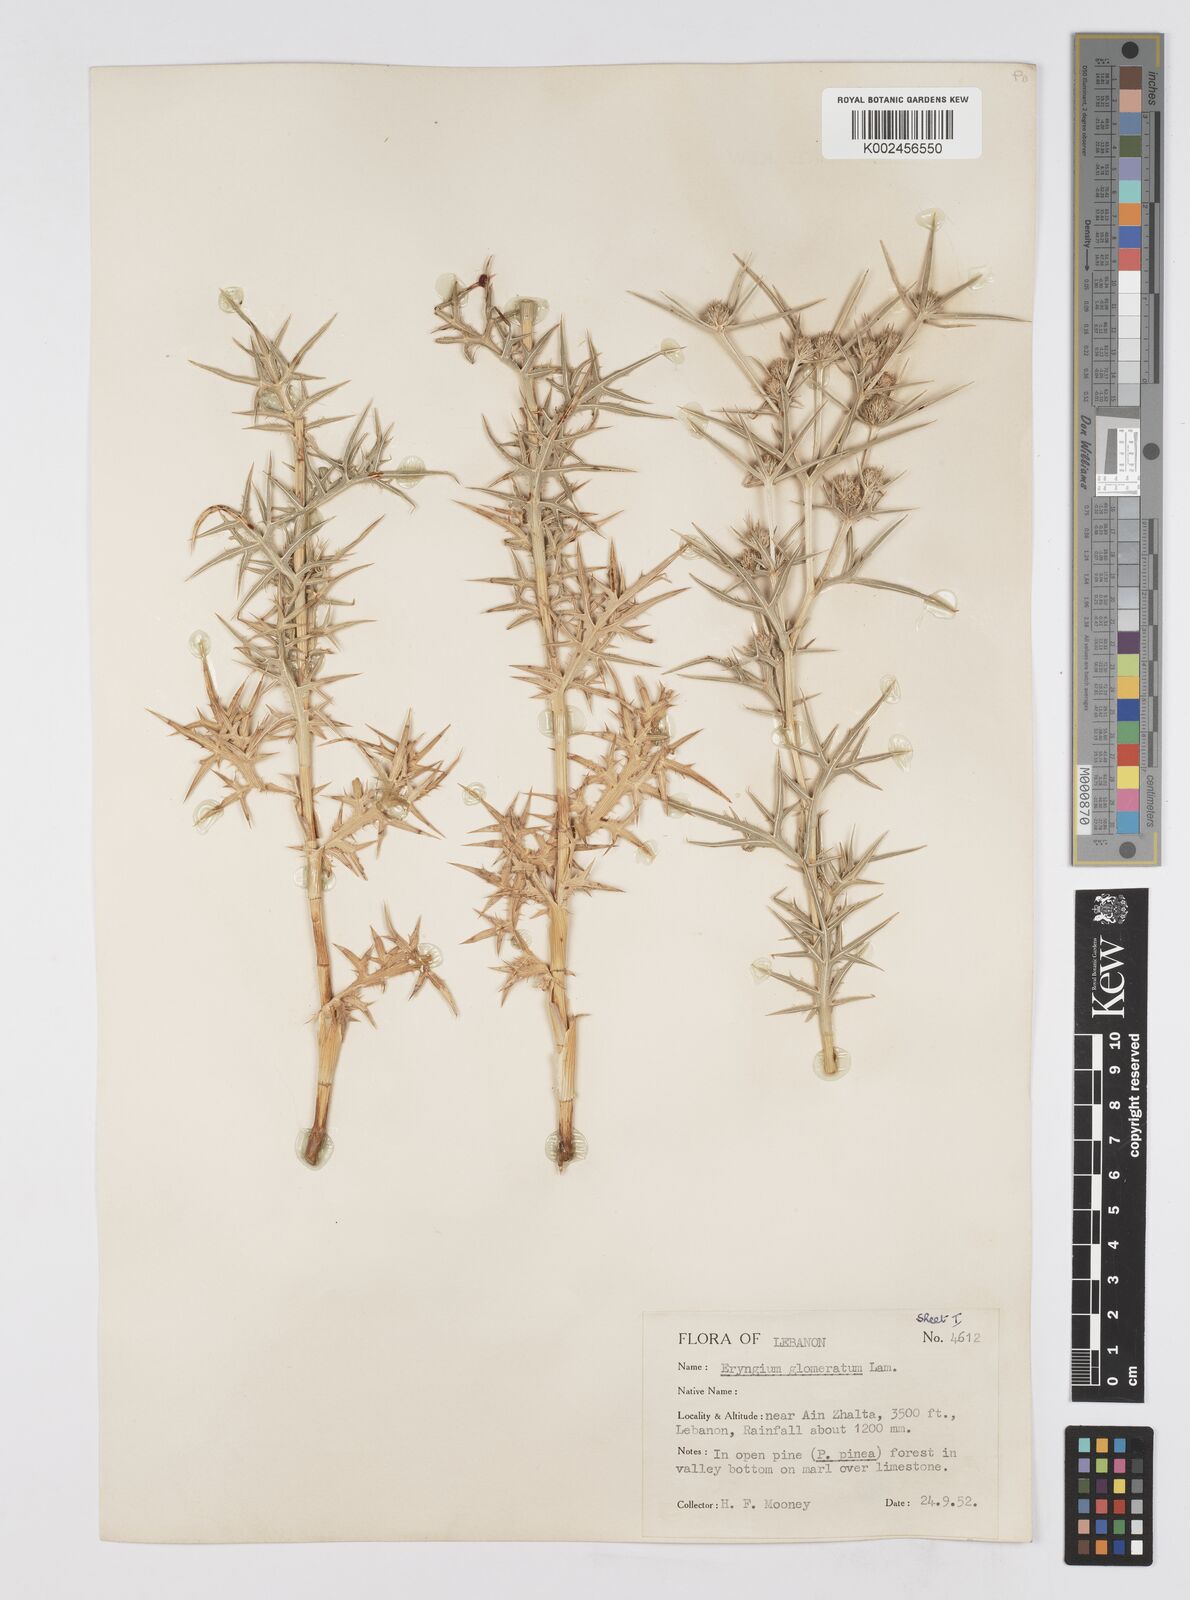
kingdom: Plantae
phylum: Tracheophyta
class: Magnoliopsida
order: Apiales
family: Apiaceae
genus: Eryngium
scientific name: Eryngium glomeratum
